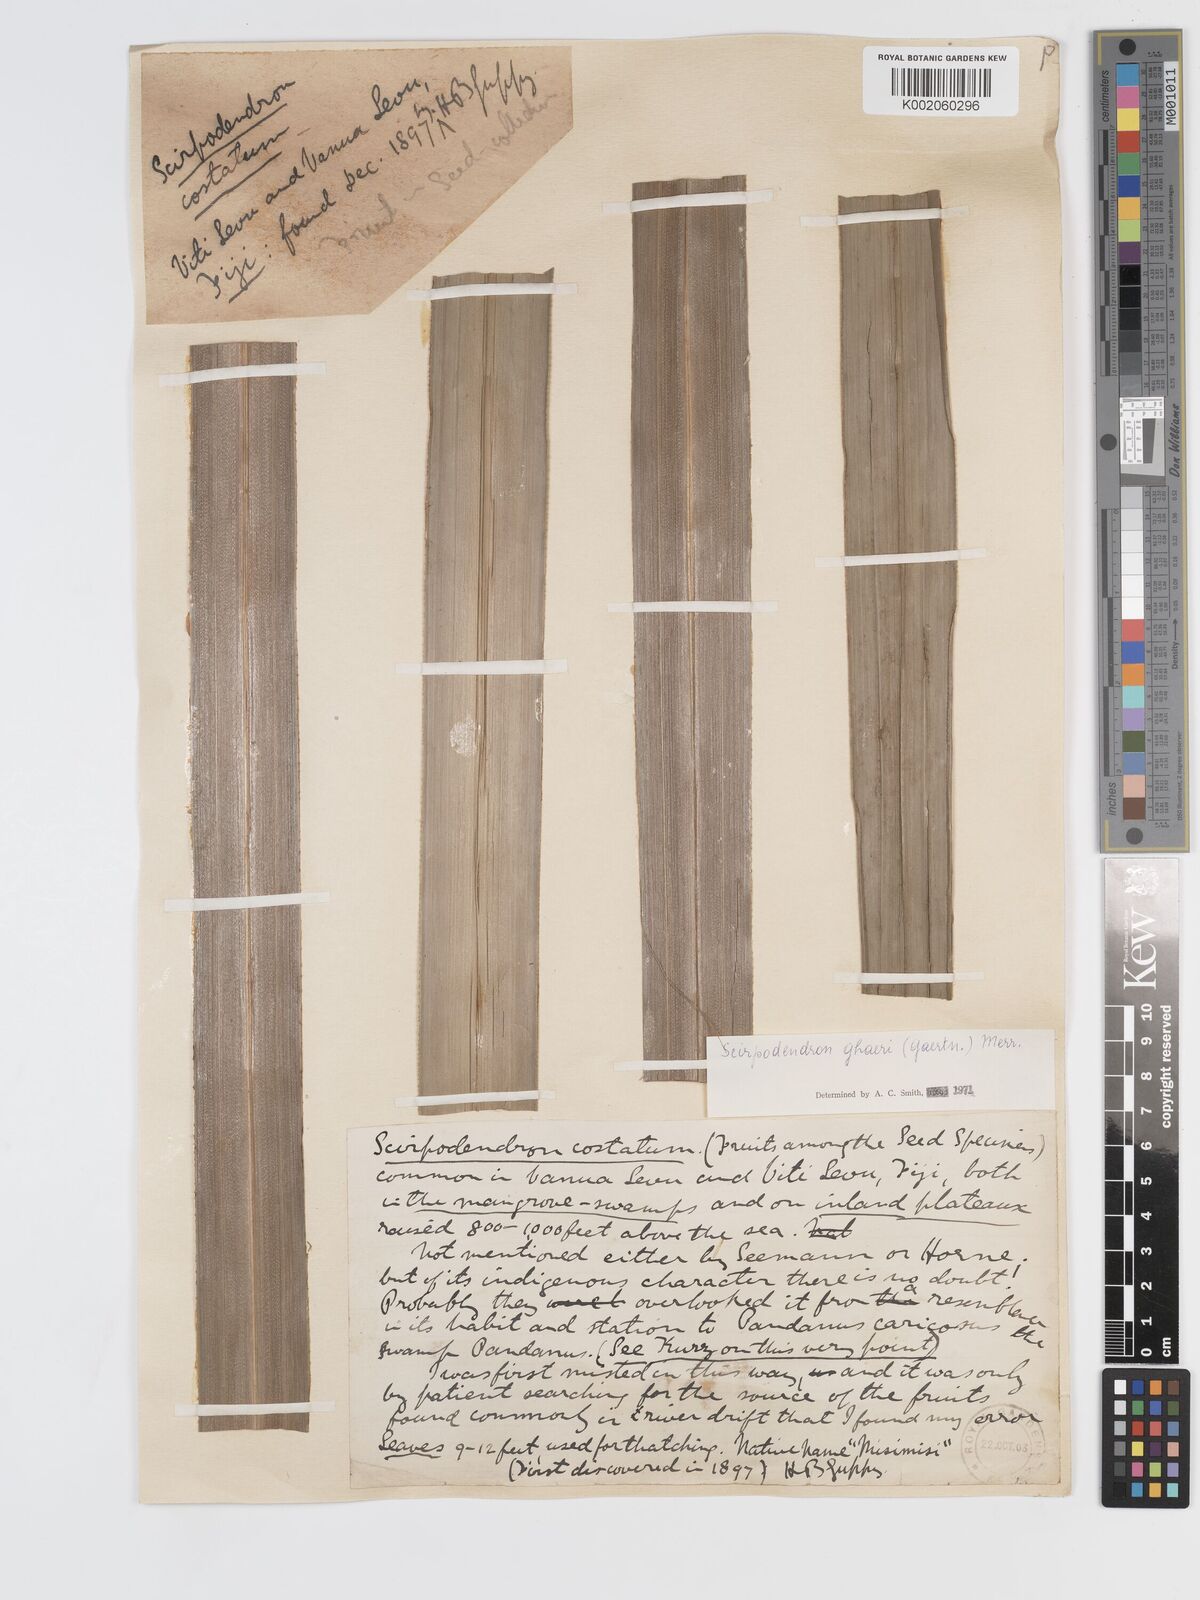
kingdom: Plantae
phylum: Tracheophyta
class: Liliopsida
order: Poales
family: Cyperaceae
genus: Scirpodendron
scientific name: Scirpodendron ghaeri
